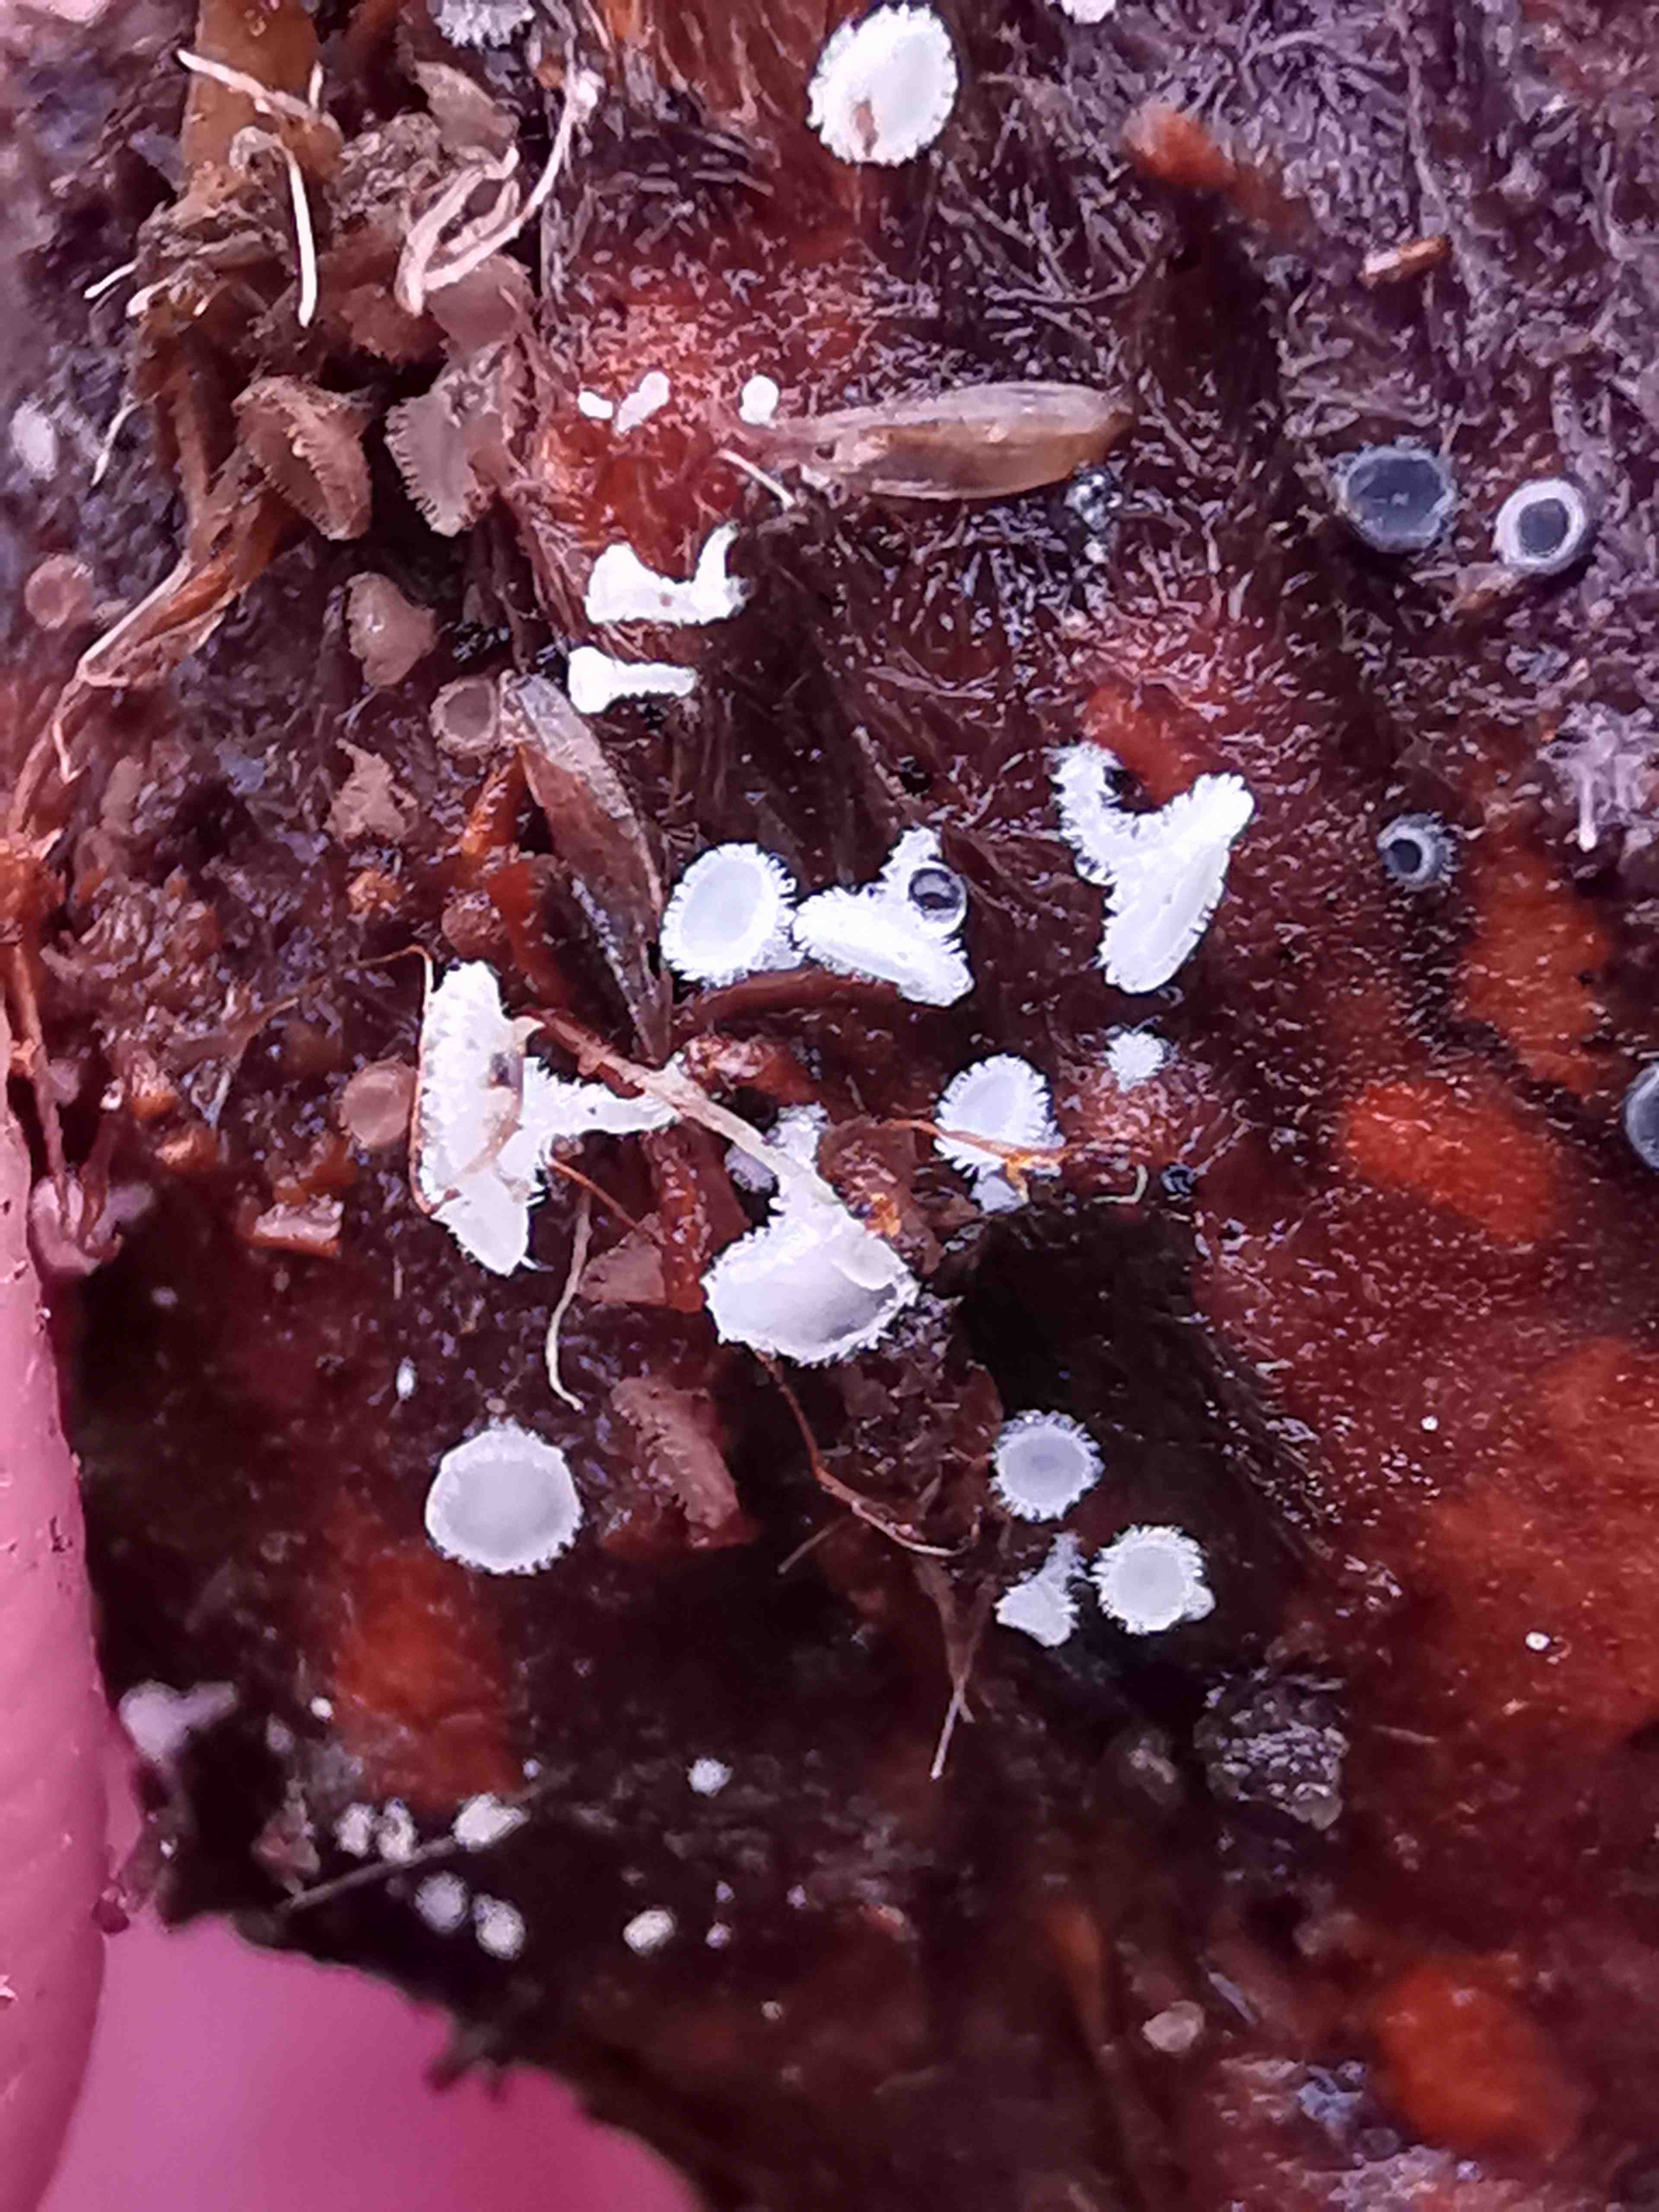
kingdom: Fungi
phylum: Ascomycota
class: Leotiomycetes
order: Helotiales
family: Lachnaceae
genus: Lachnum
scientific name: Lachnum virgineum
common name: jomfru-frynseskive
